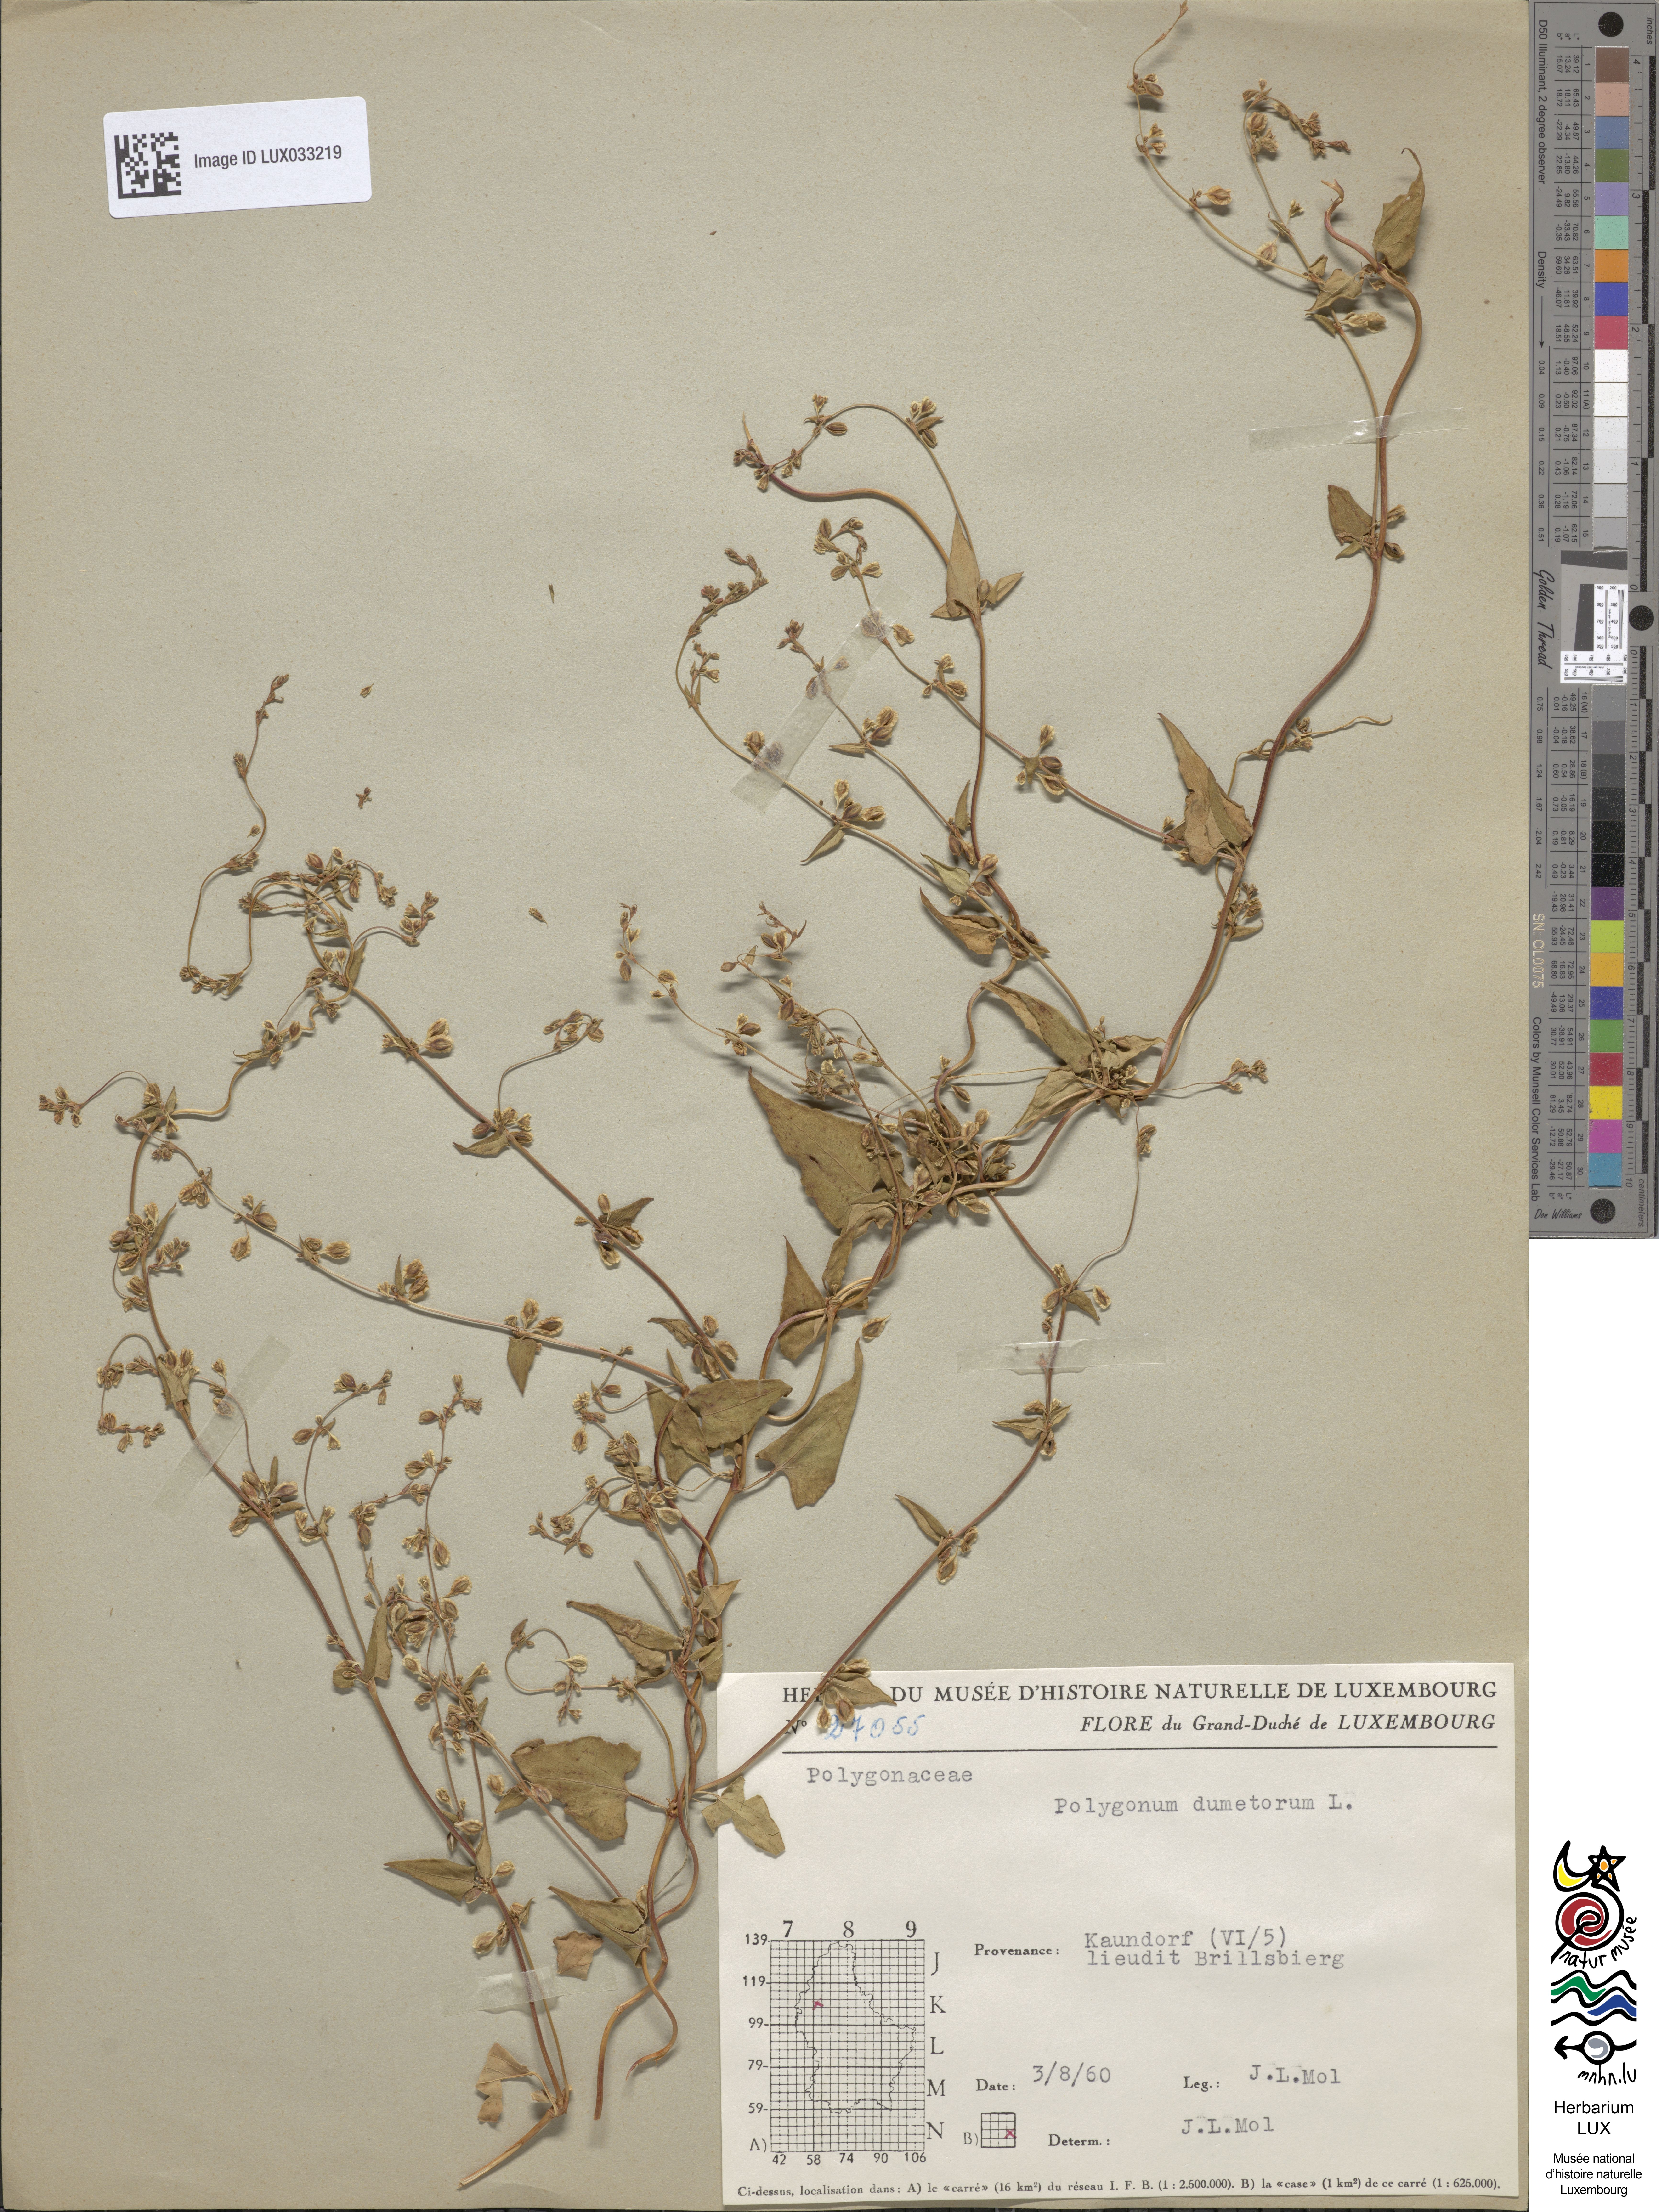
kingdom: Plantae
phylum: Tracheophyta
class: Magnoliopsida
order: Caryophyllales
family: Polygonaceae
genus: Fallopia
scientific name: Fallopia dumetorum
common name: Copse-bindweed
